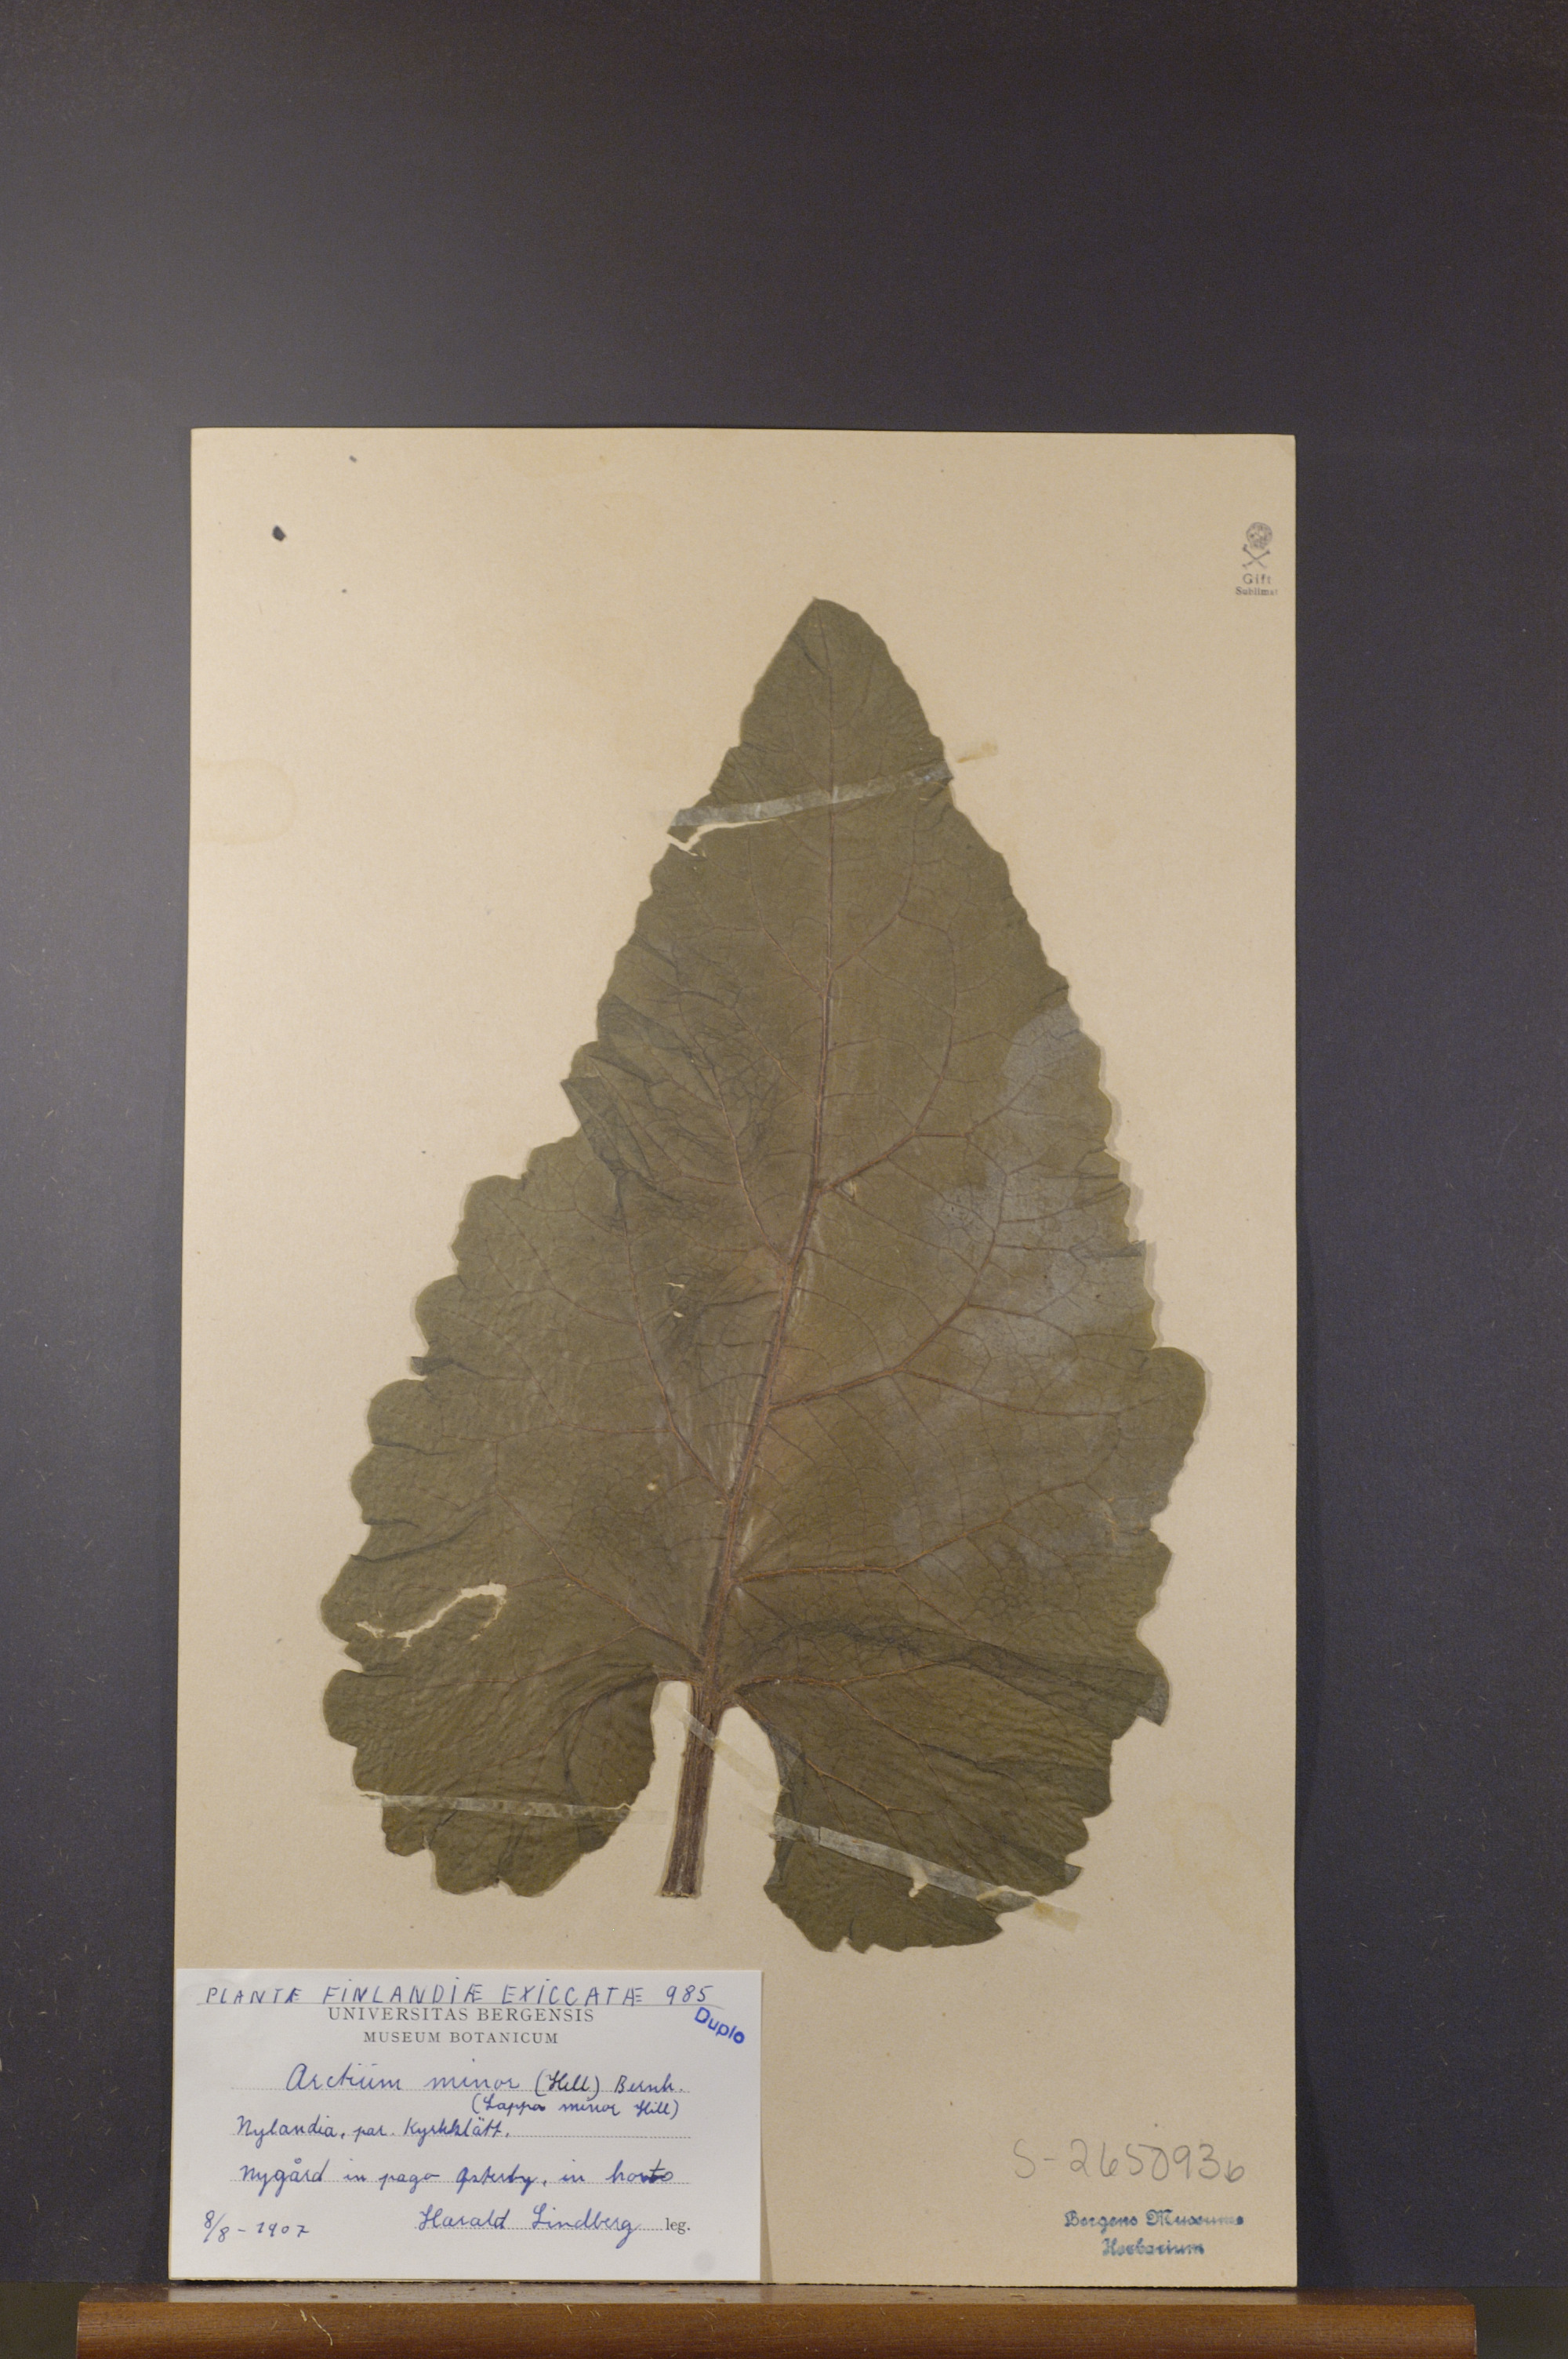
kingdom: Plantae
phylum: Tracheophyta
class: Magnoliopsida
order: Asterales
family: Asteraceae
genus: Arctium
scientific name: Arctium minus
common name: Lesser burdock
